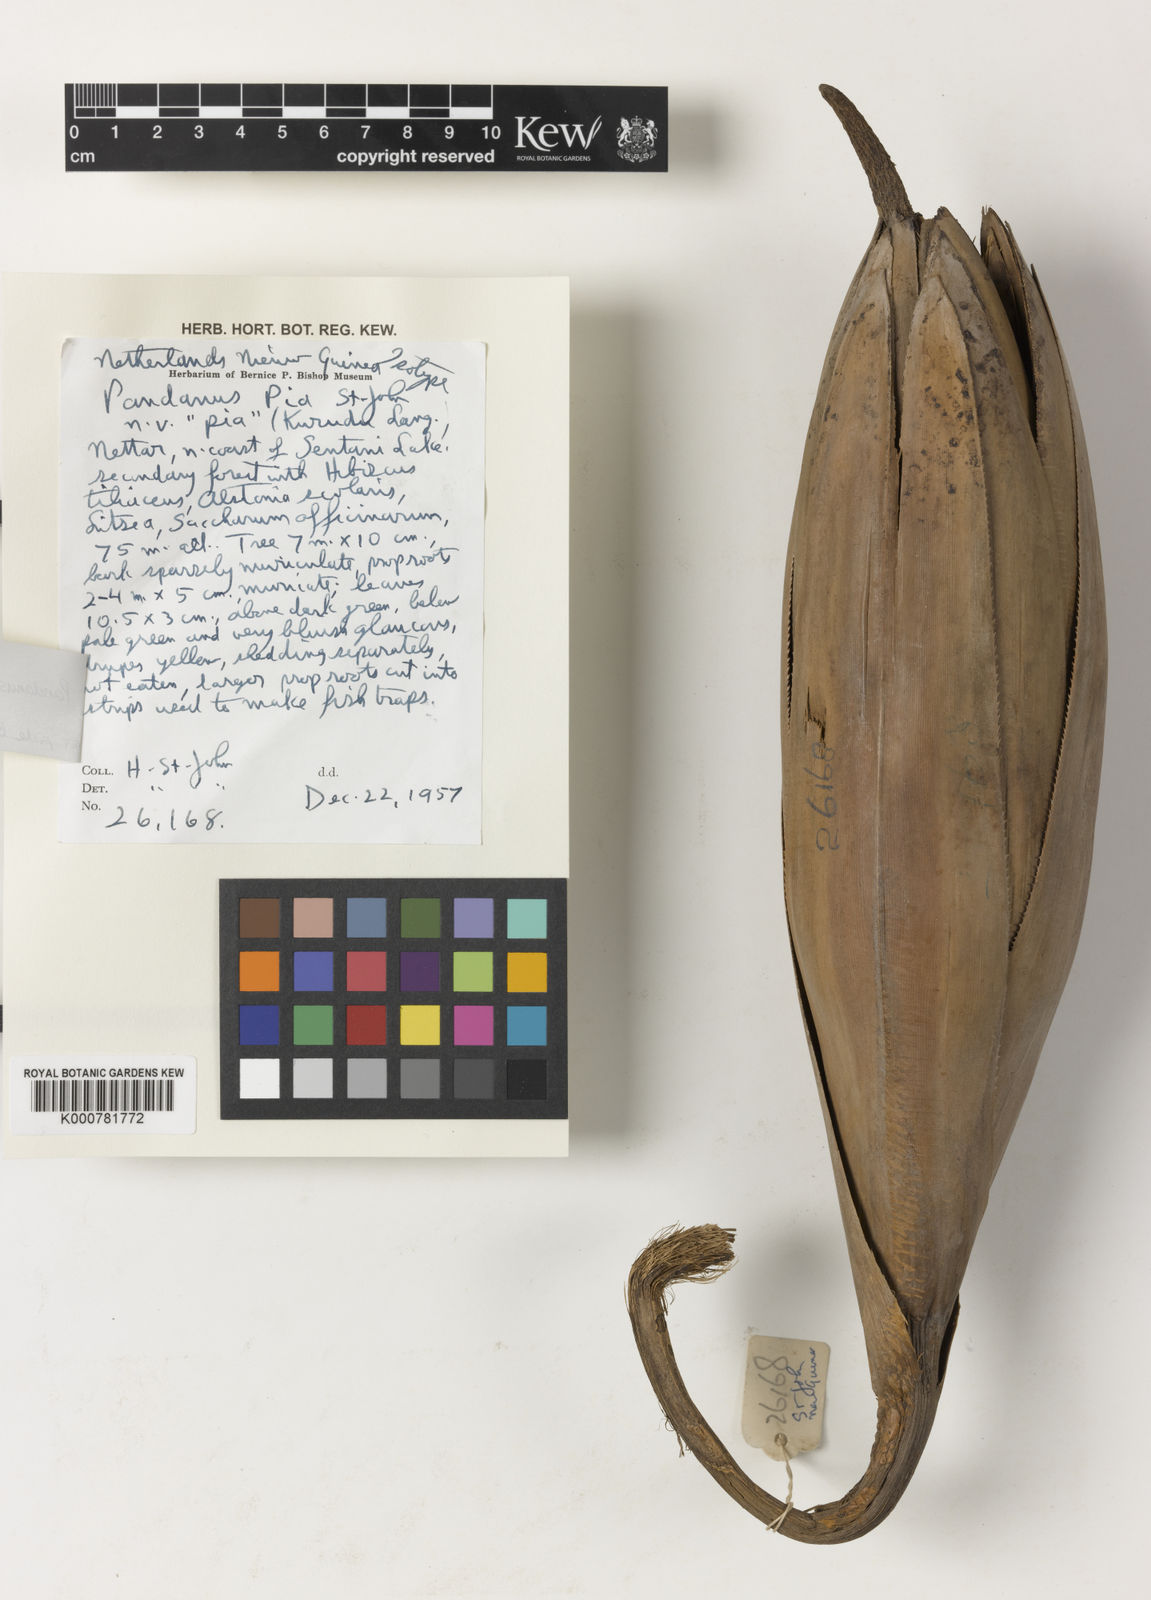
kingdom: Plantae
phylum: Tracheophyta
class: Liliopsida
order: Pandanales
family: Pandanaceae
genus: Pandanus
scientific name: Pandanus krauelianus
